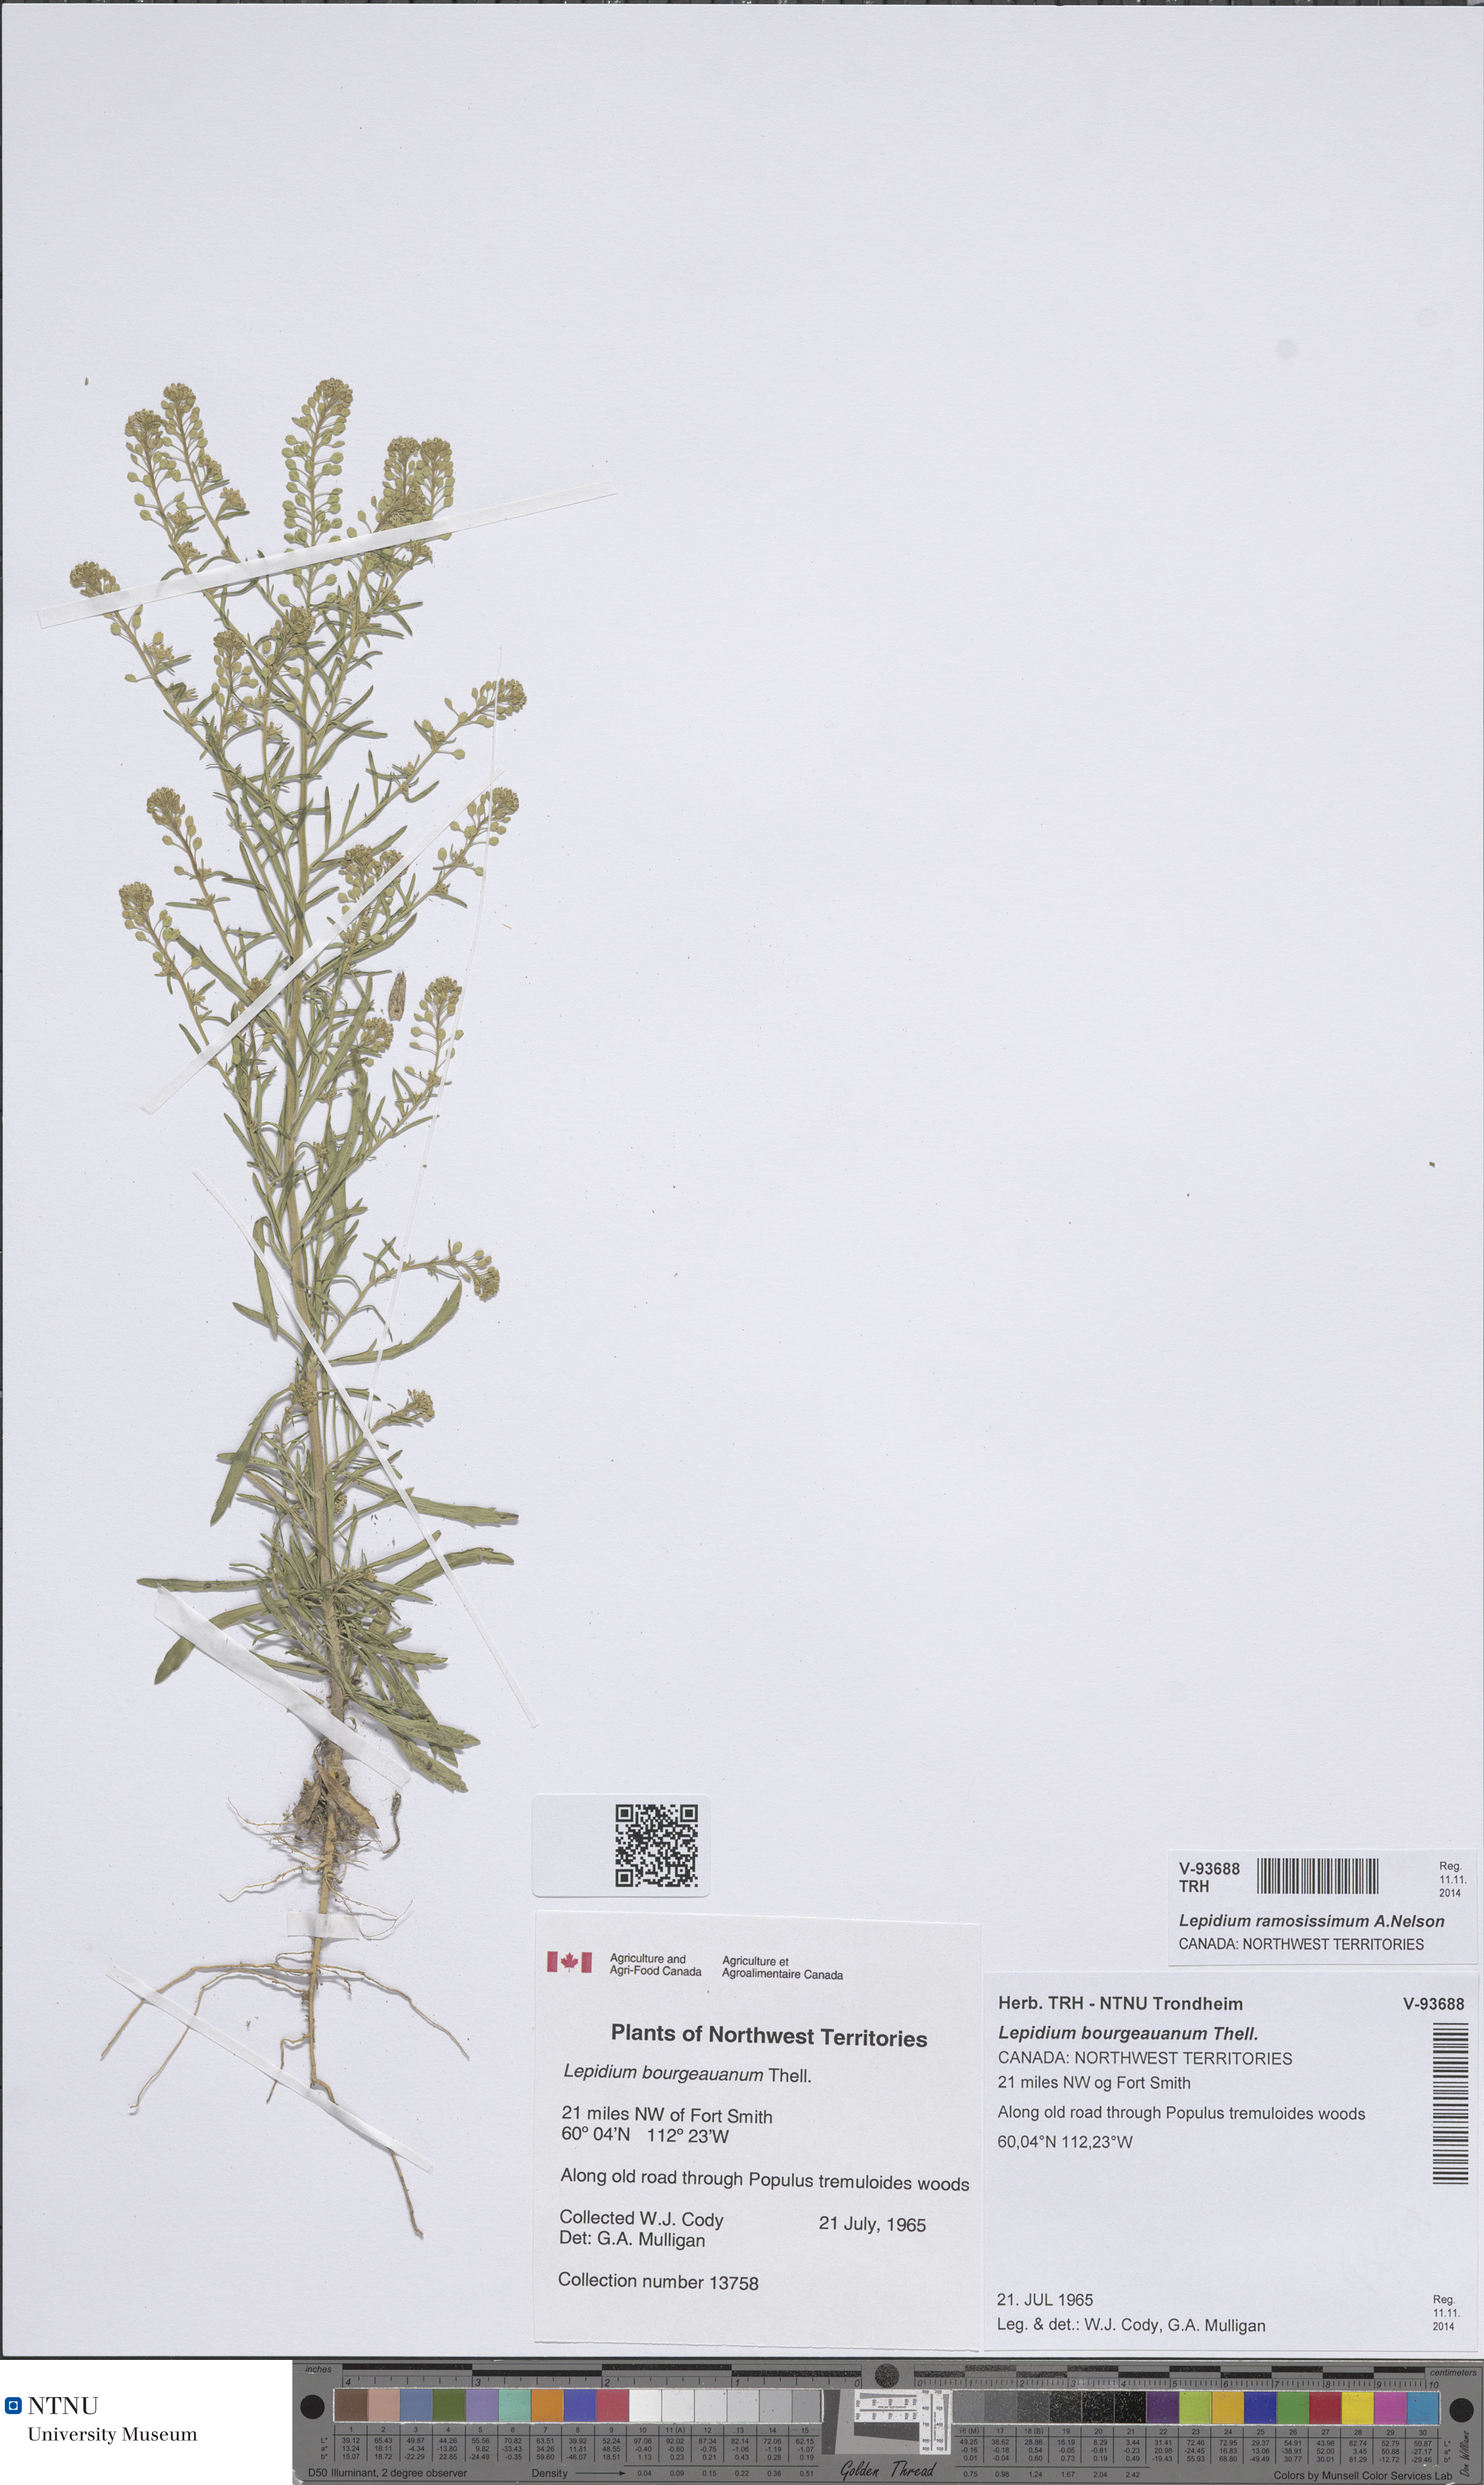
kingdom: Plantae
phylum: Tracheophyta
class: Magnoliopsida
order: Brassicales
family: Brassicaceae
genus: Lepidium
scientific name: Lepidium ramosissimum
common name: Bushy peppergrass
